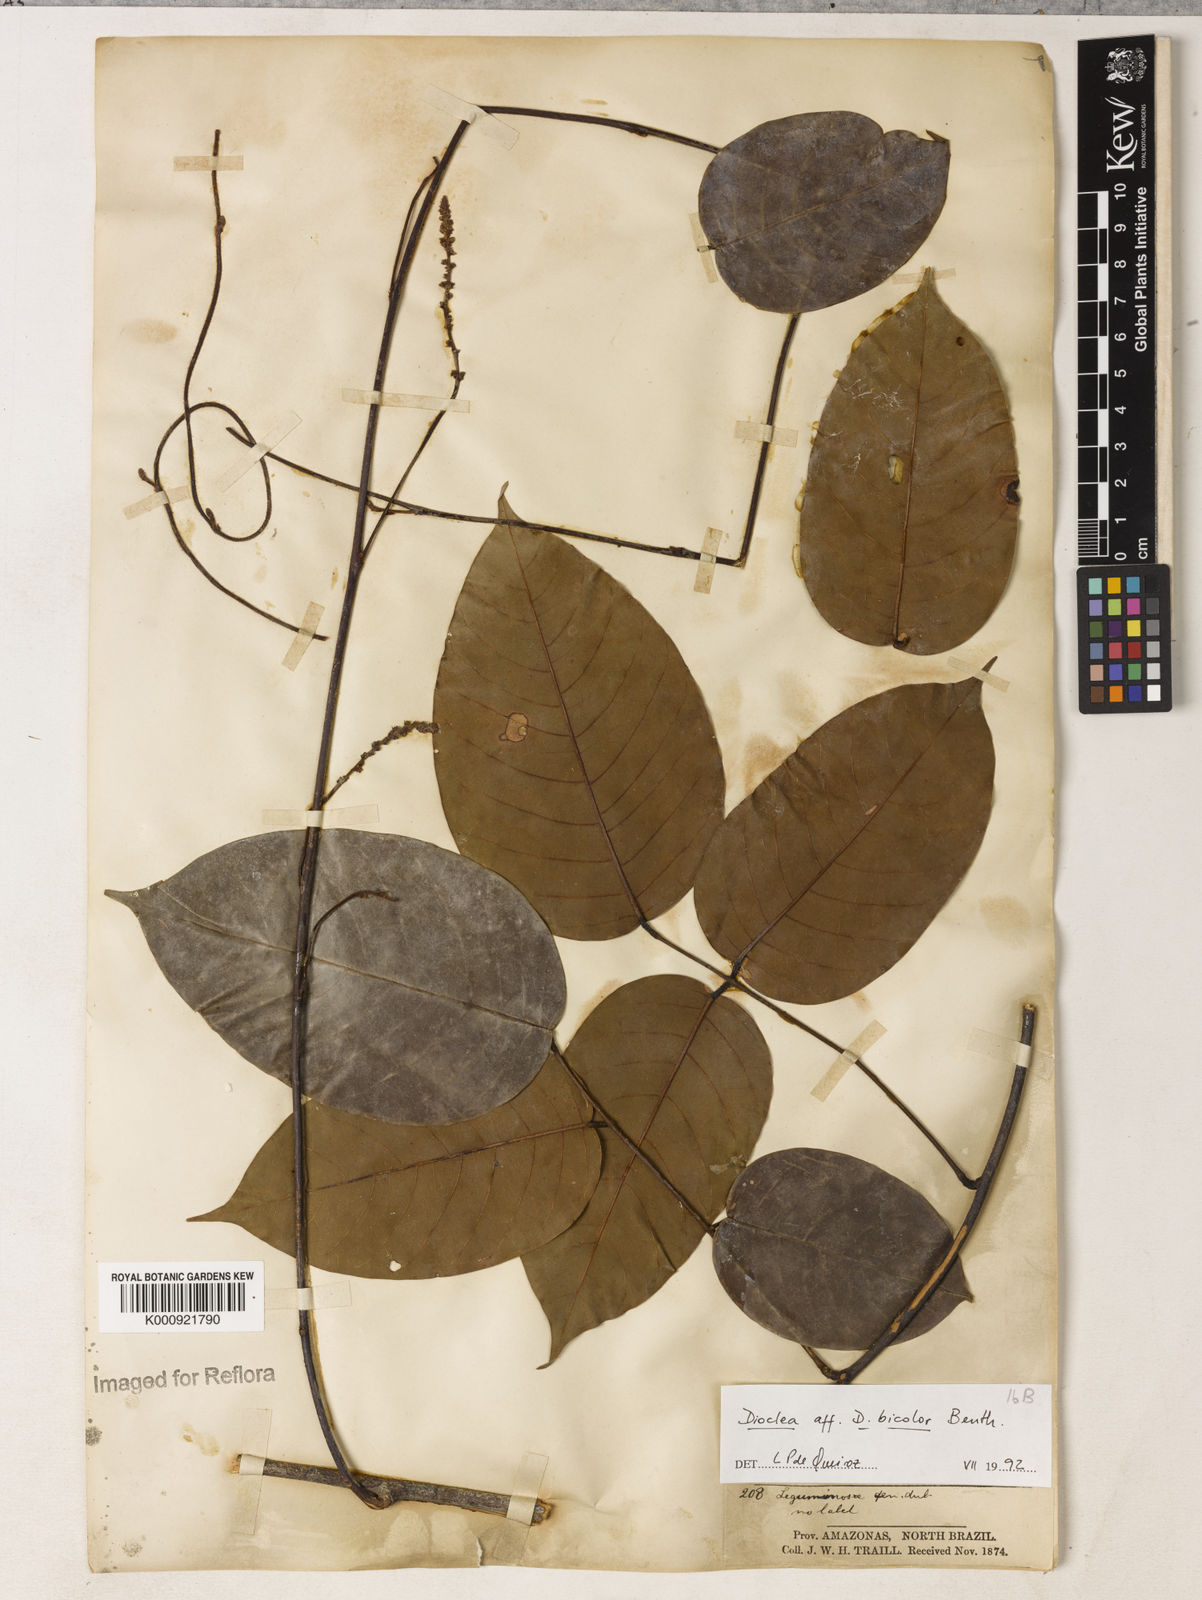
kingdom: Plantae
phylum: Tracheophyta
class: Magnoliopsida
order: Fabales
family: Fabaceae
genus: Macropsychanthus
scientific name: Macropsychanthus bicolor
